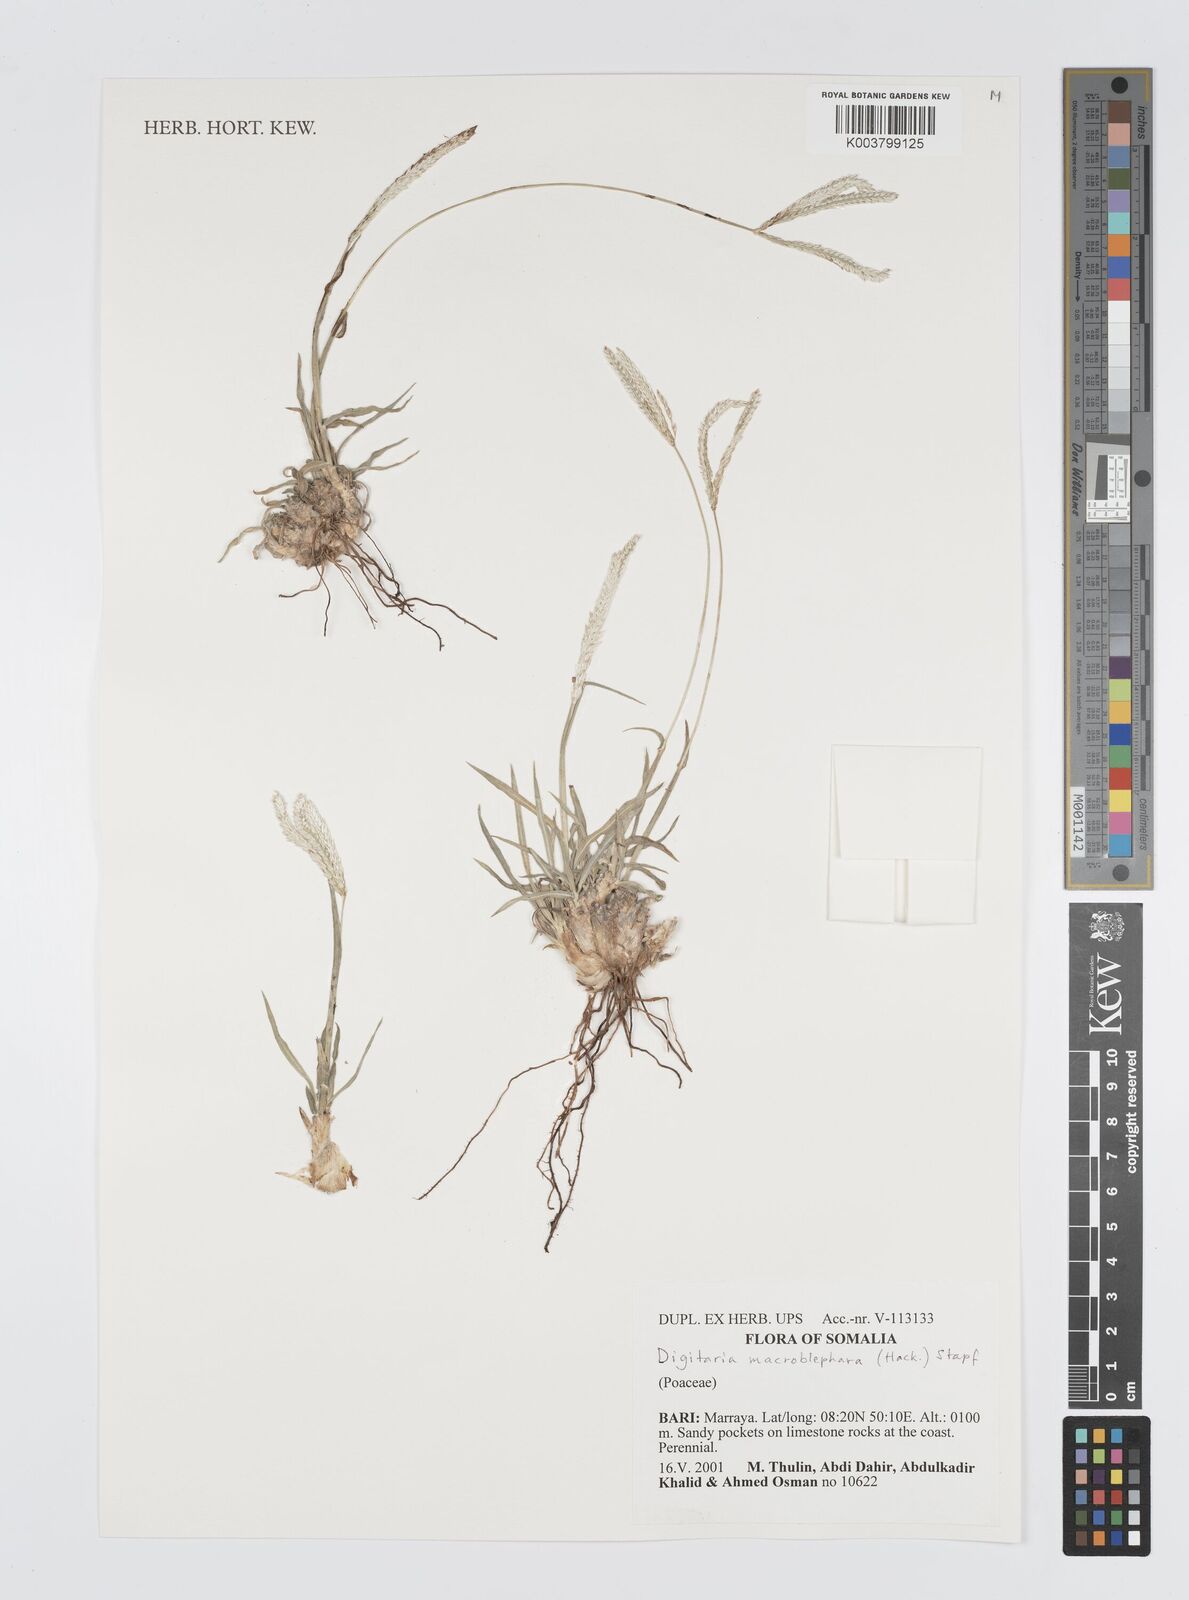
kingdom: Plantae
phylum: Tracheophyta
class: Liliopsida
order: Poales
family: Poaceae
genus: Digitaria
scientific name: Digitaria macroblephara
